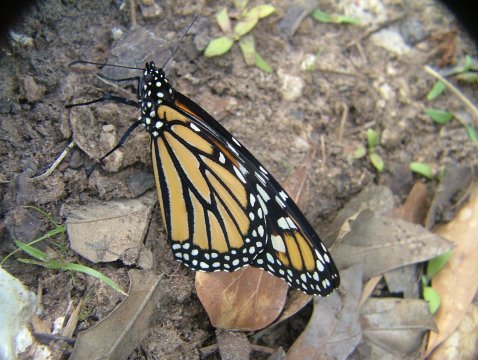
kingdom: Animalia
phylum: Arthropoda
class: Insecta
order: Lepidoptera
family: Nymphalidae
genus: Danaus
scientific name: Danaus plexippus
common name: Monarch
